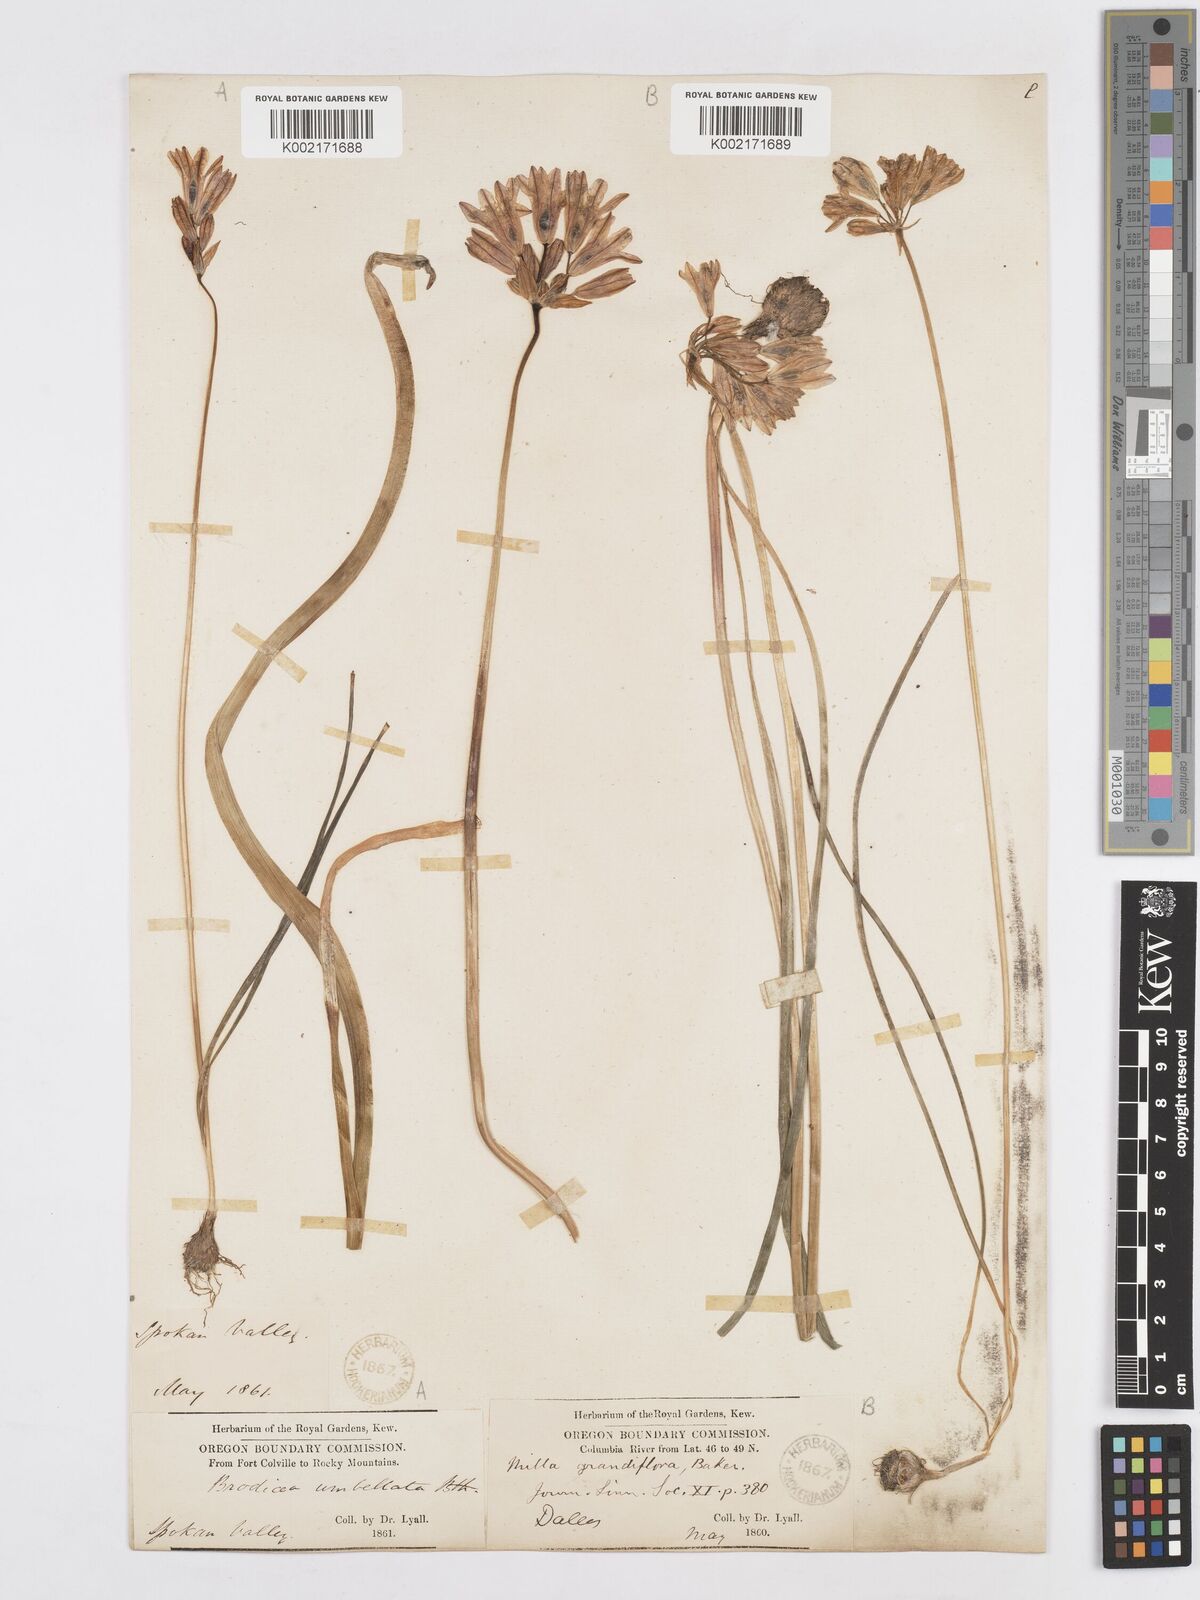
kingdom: Plantae
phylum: Tracheophyta
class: Liliopsida
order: Asparagales
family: Asparagaceae
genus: Triteleia
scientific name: Triteleia grandiflora
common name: Wild hyacinth
